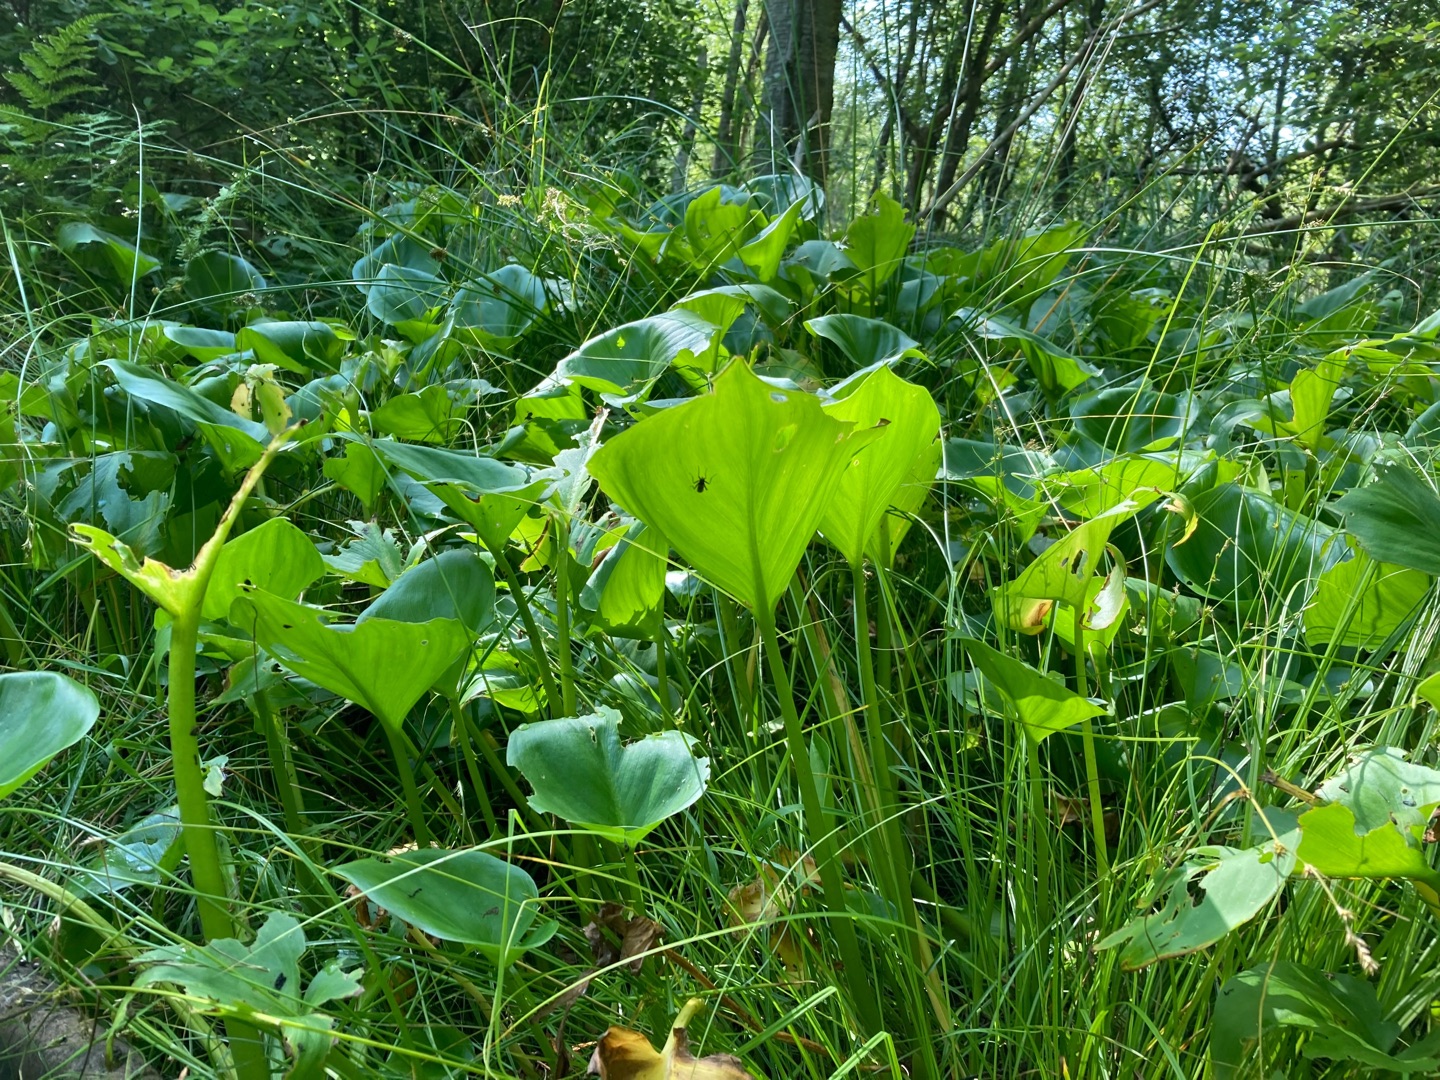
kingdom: Plantae
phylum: Tracheophyta
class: Liliopsida
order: Alismatales
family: Araceae
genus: Calla
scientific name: Calla palustris
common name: Kærmysse
